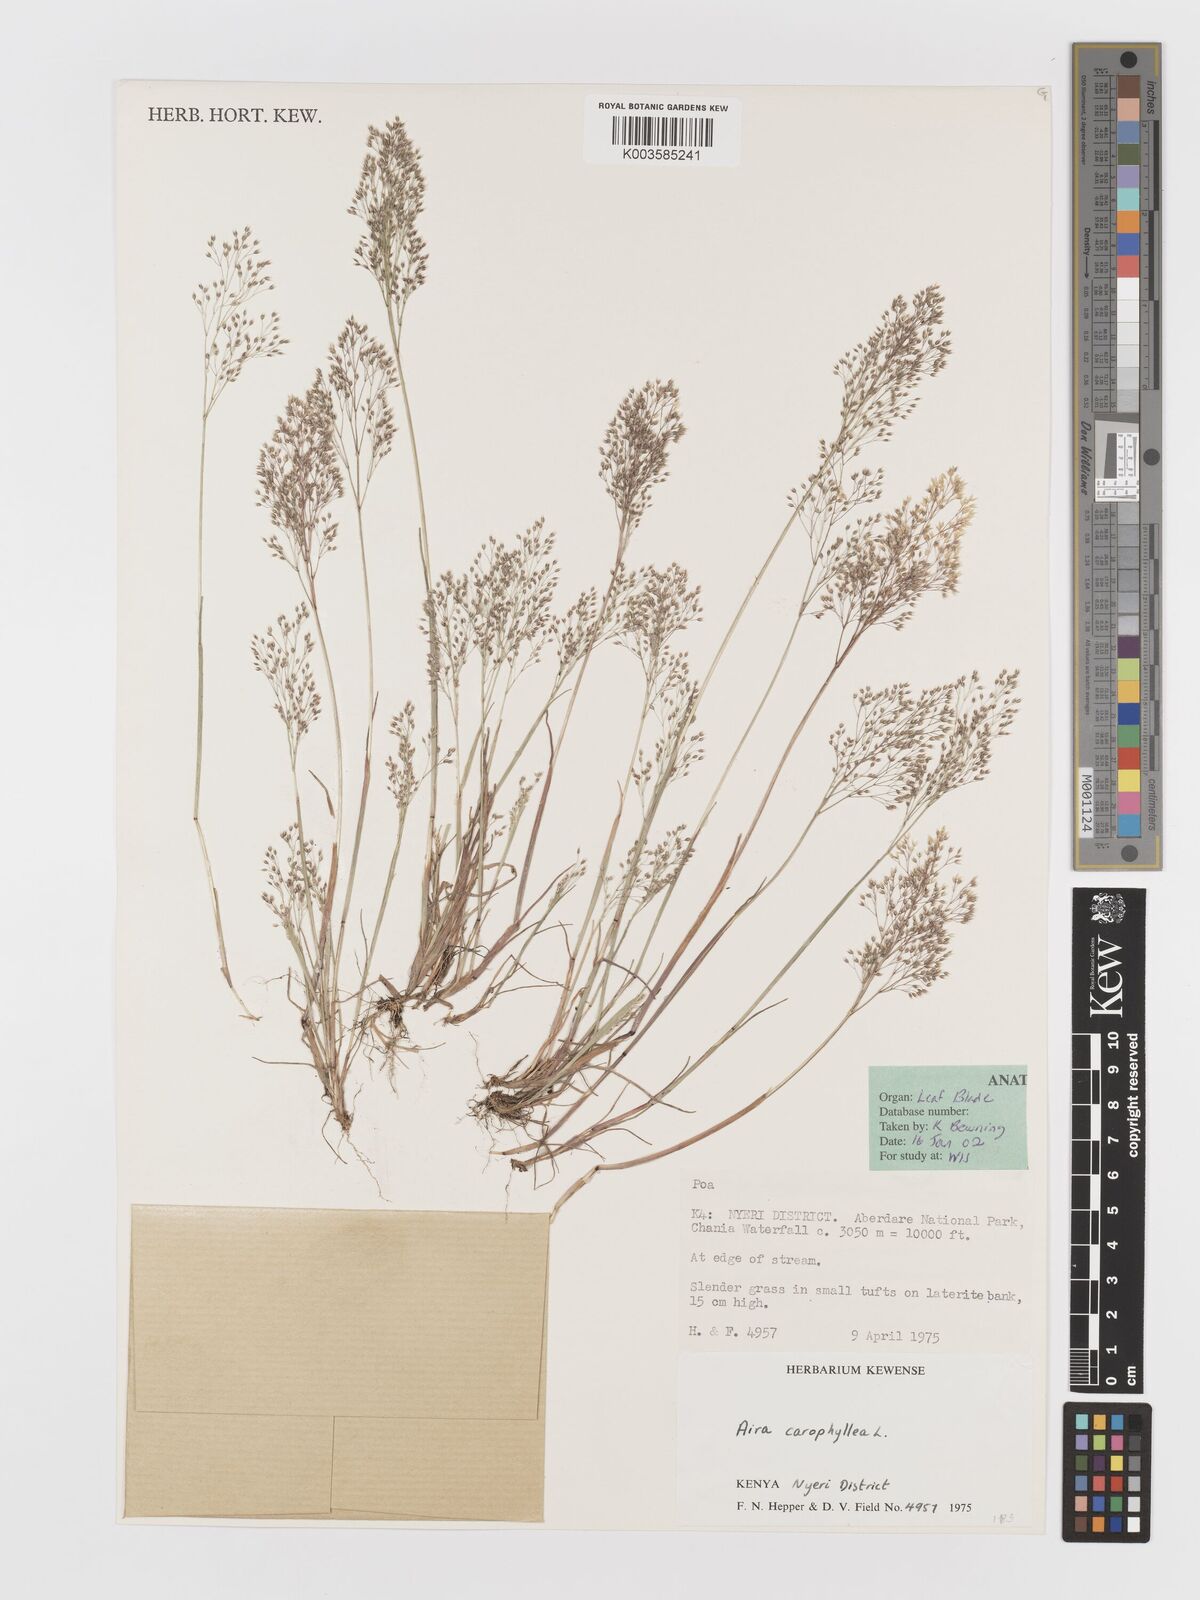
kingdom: Plantae
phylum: Tracheophyta
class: Liliopsida
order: Poales
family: Poaceae
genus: Aira
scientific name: Aira caryophyllea
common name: Silver hairgrass
